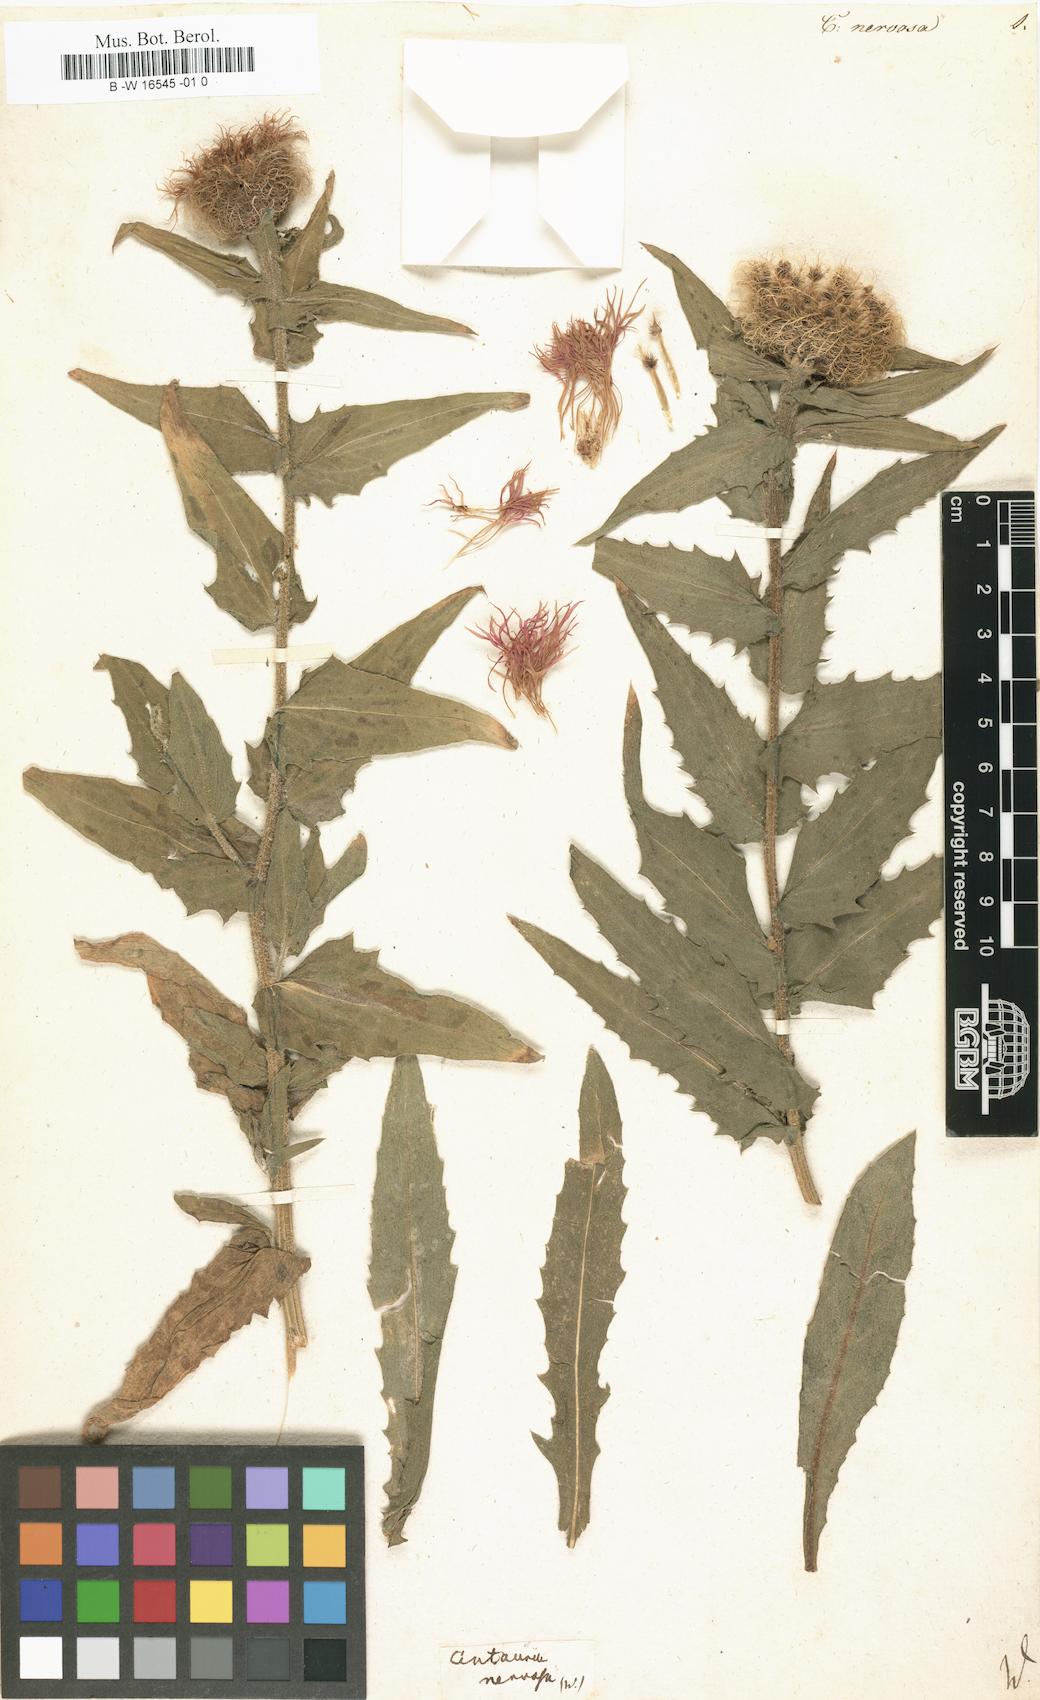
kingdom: Plantae
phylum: Tracheophyta
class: Magnoliopsida
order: Asterales
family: Asteraceae
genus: Centaurea
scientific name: Centaurea nervosa
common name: Singleflower knapweed
